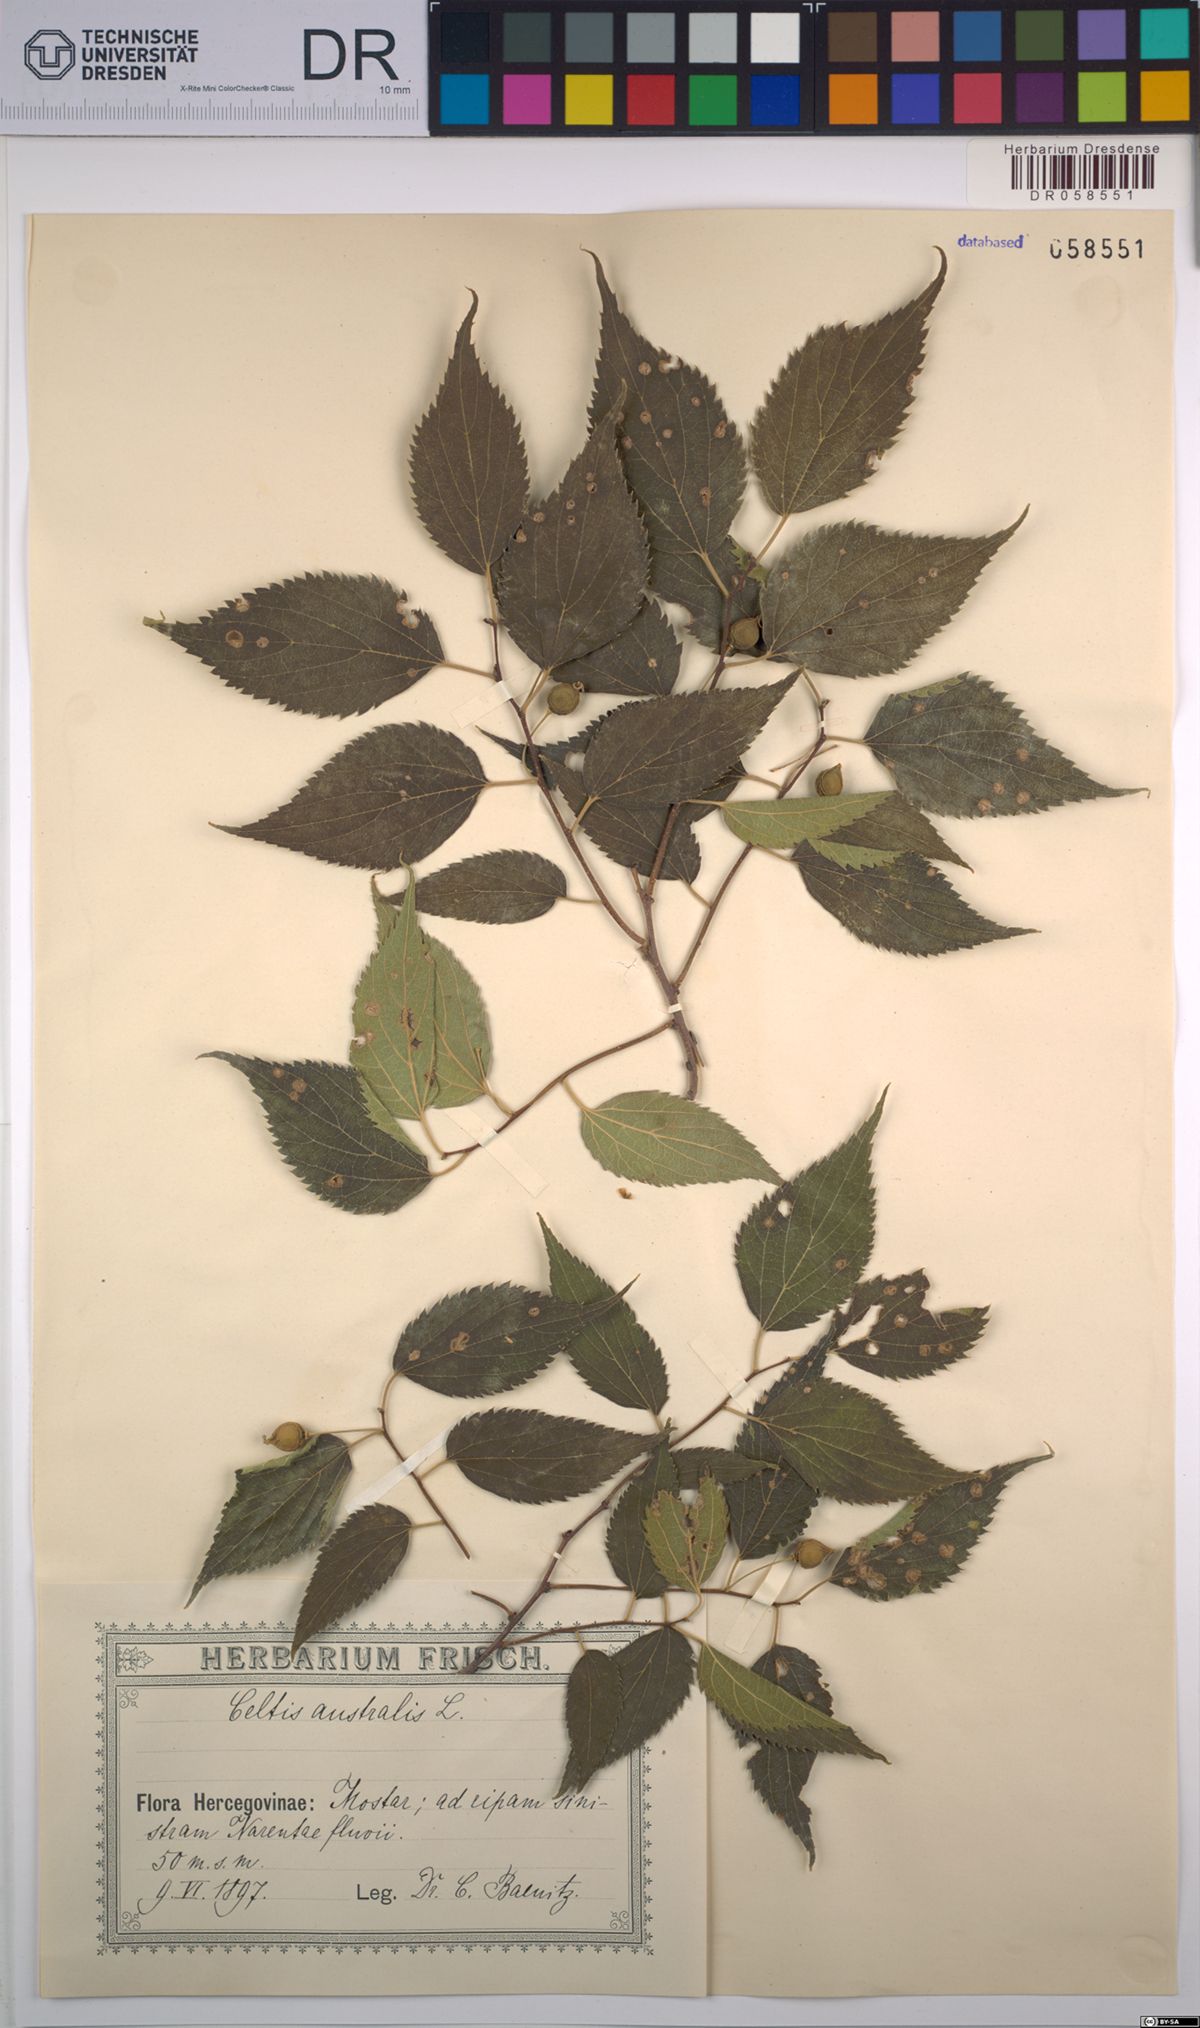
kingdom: Plantae
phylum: Tracheophyta
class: Magnoliopsida
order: Rosales
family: Cannabaceae
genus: Celtis
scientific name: Celtis australis
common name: European hackberry
